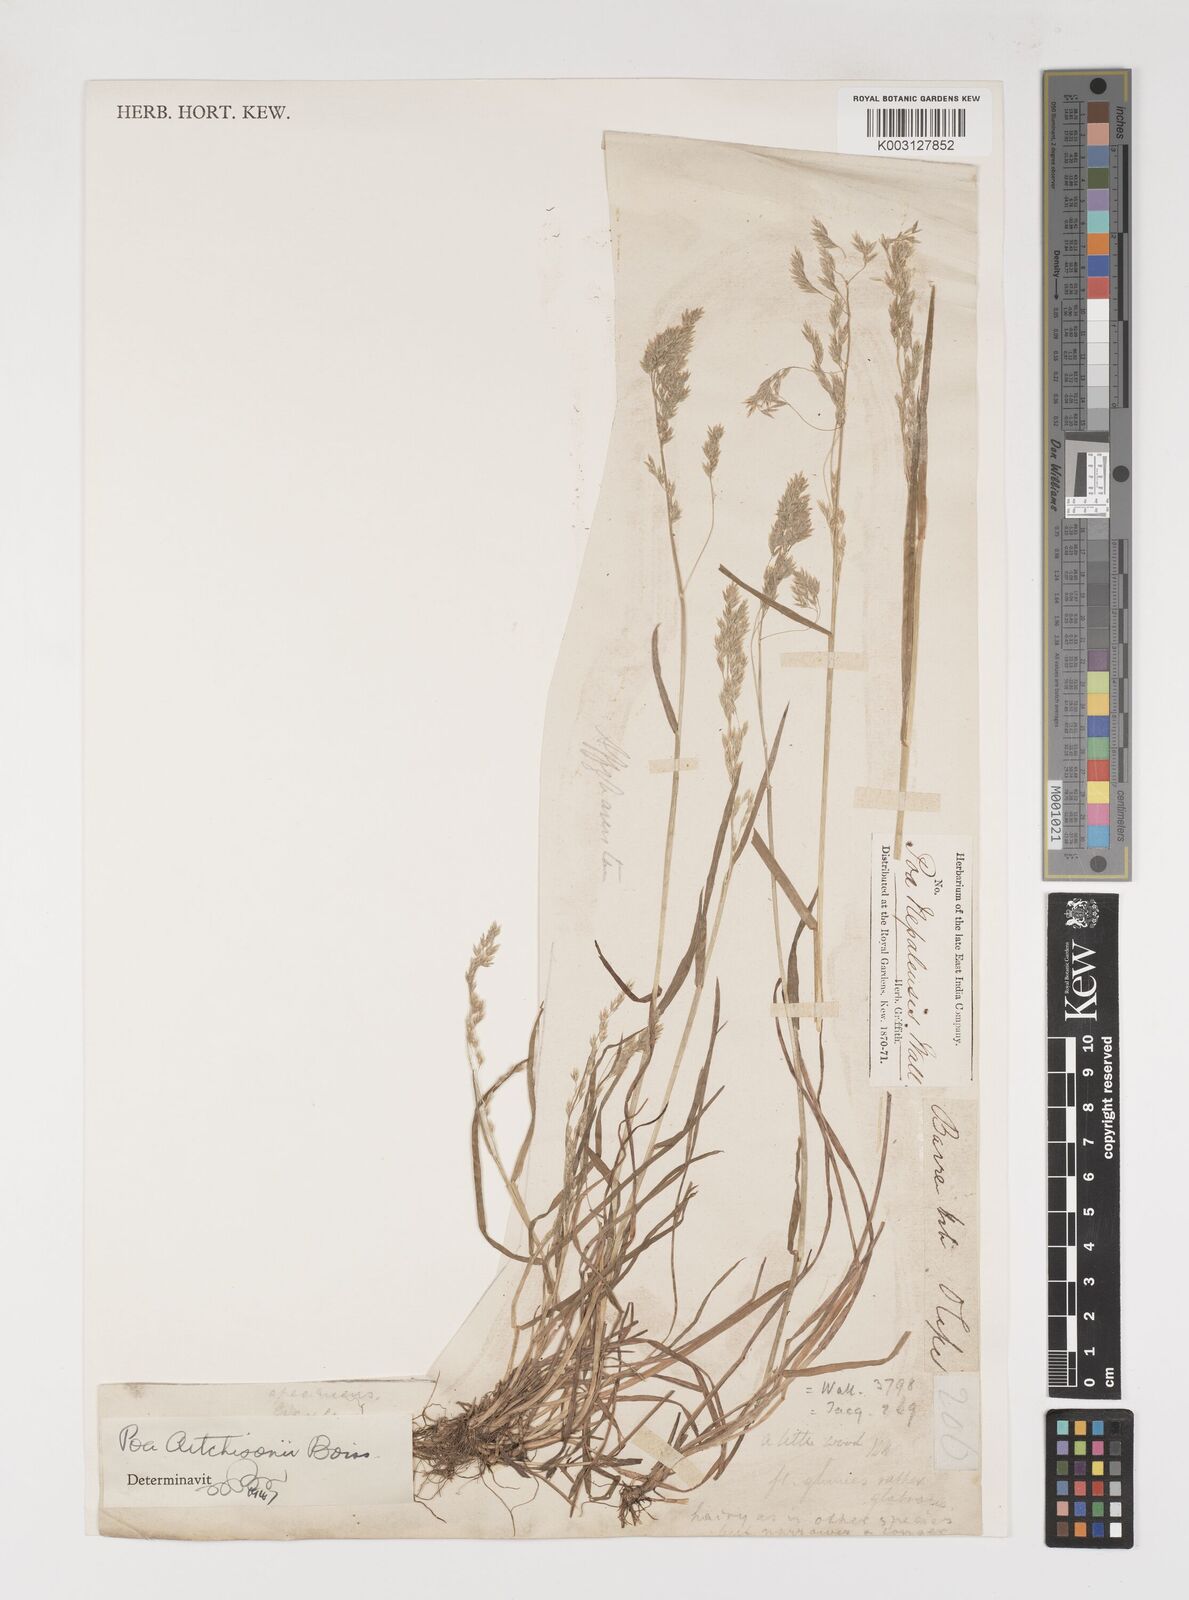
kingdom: Plantae
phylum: Tracheophyta
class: Liliopsida
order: Poales
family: Poaceae
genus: Poa
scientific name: Poa aitchisonii
